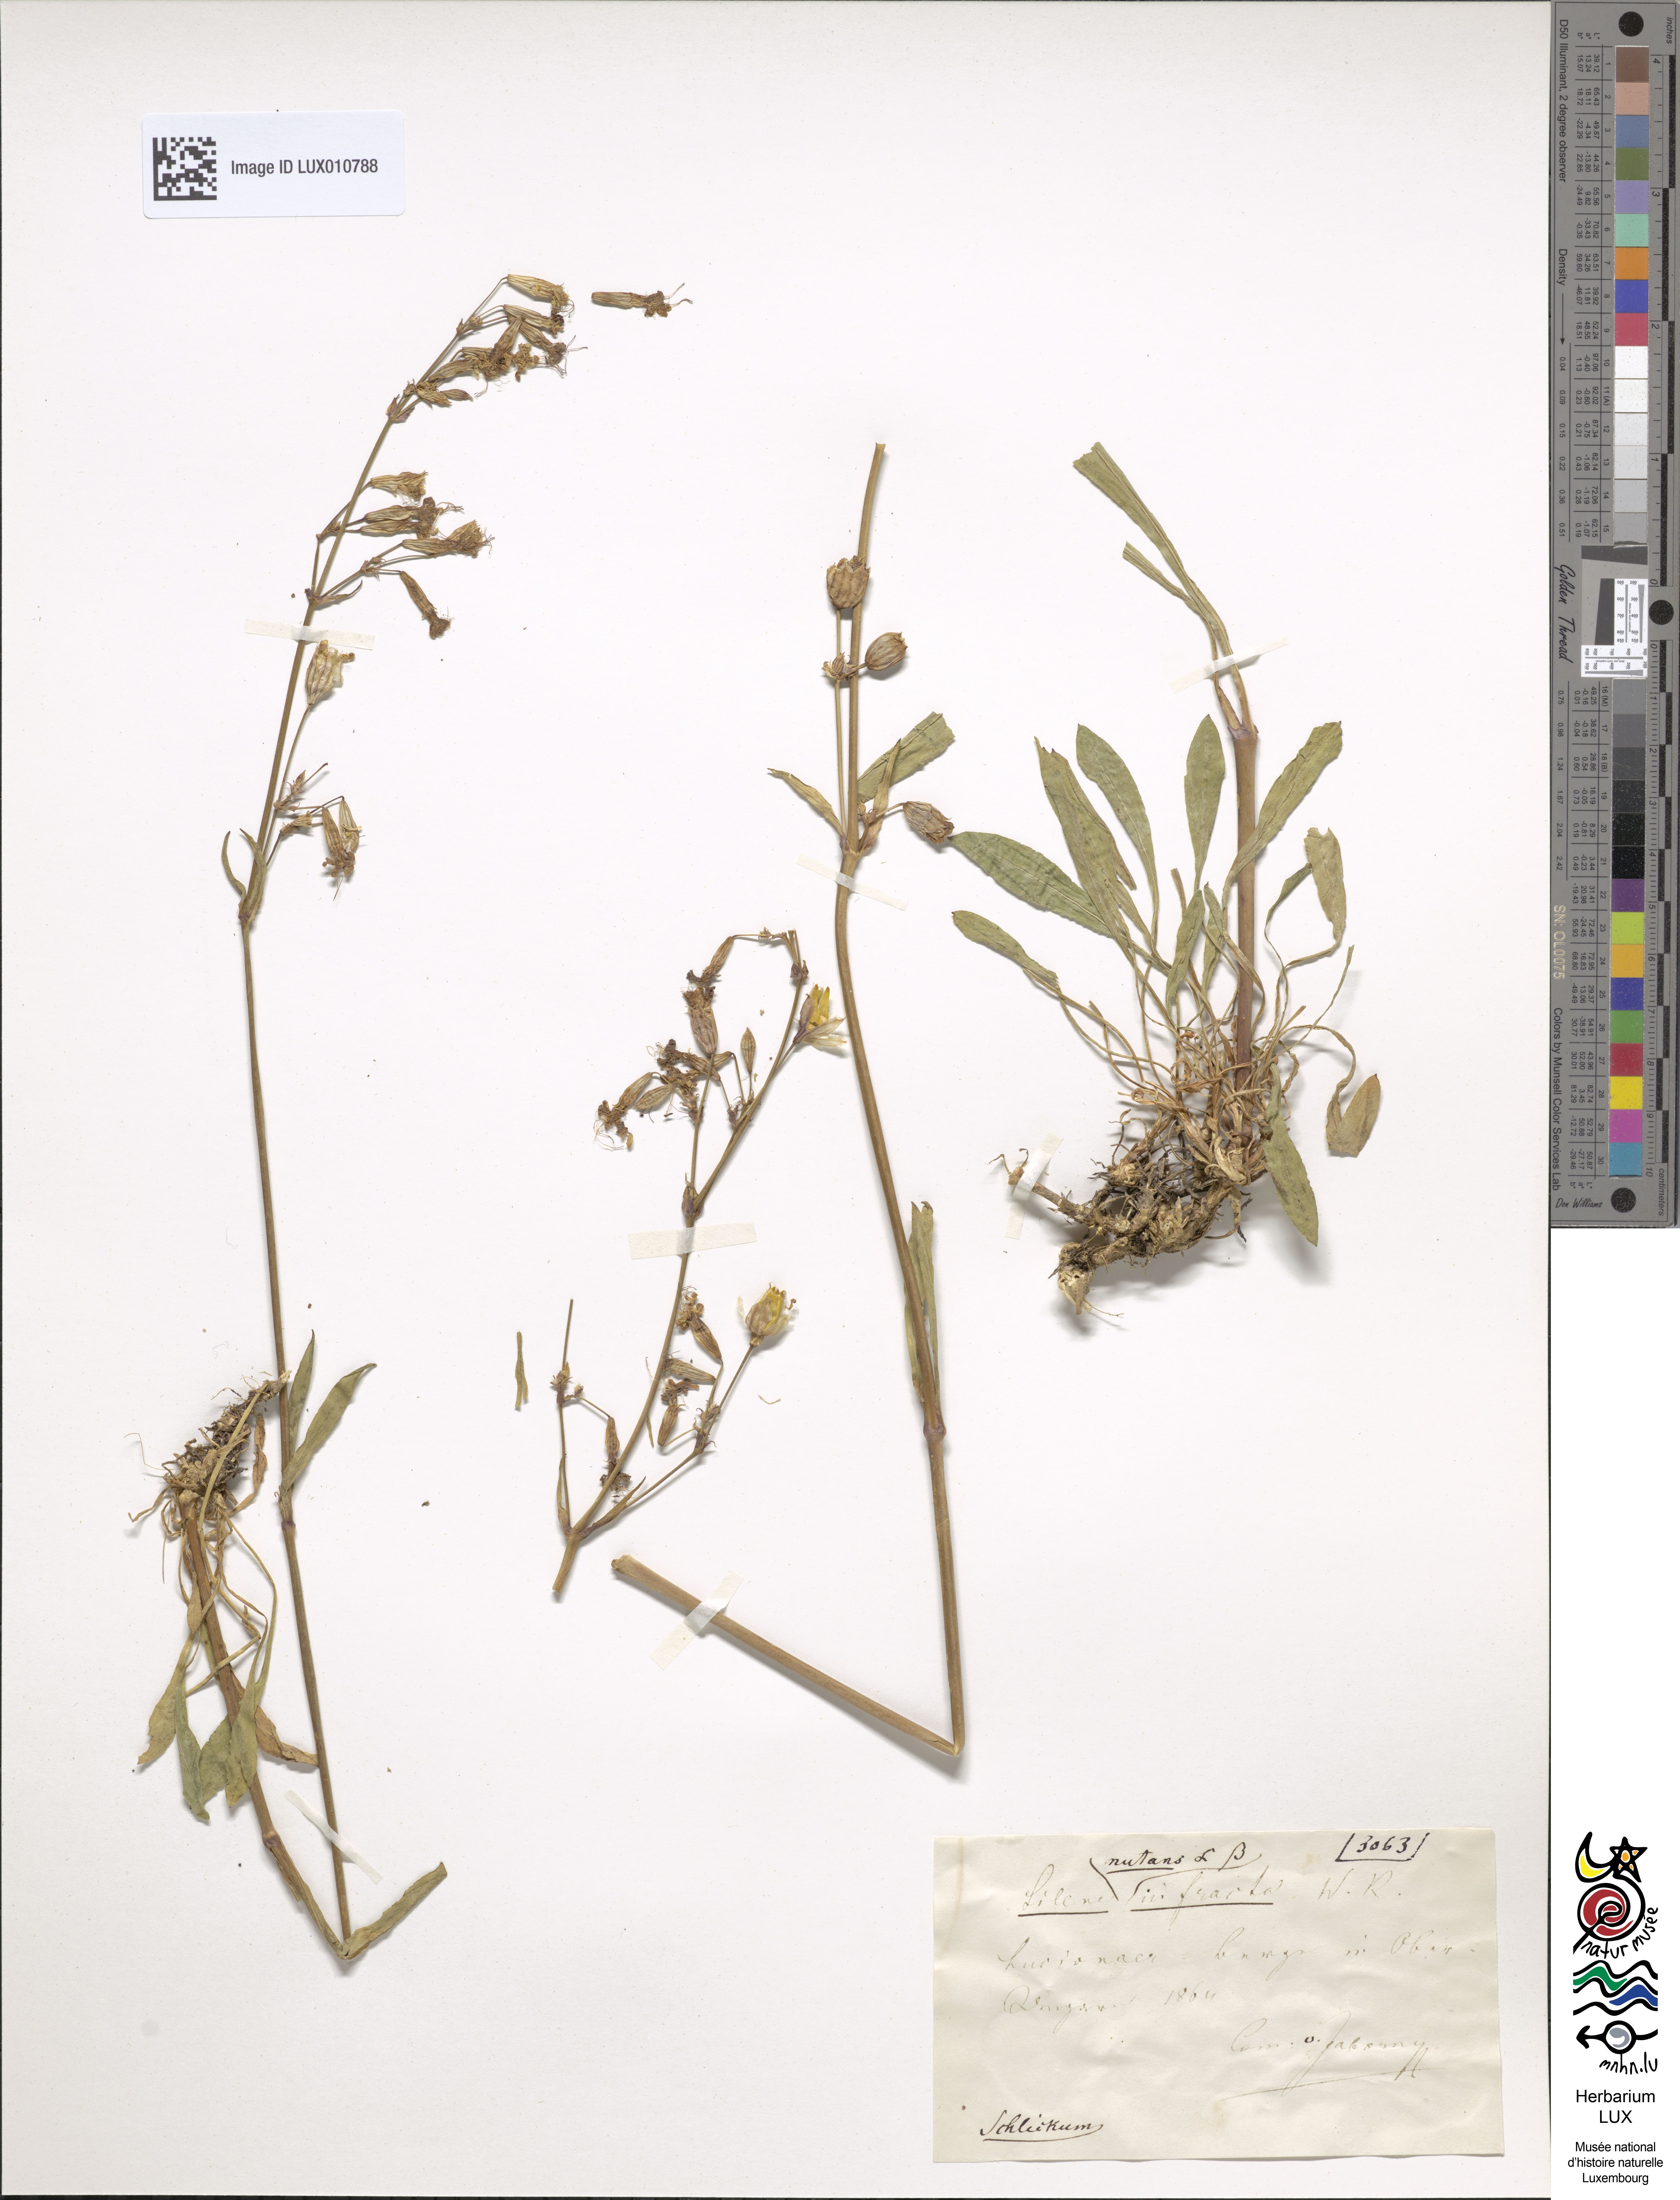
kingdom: Plantae
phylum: Tracheophyta
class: Magnoliopsida
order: Caryophyllales
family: Caryophyllaceae
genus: Silene
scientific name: Silene nutans
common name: Nottingham catchfly
